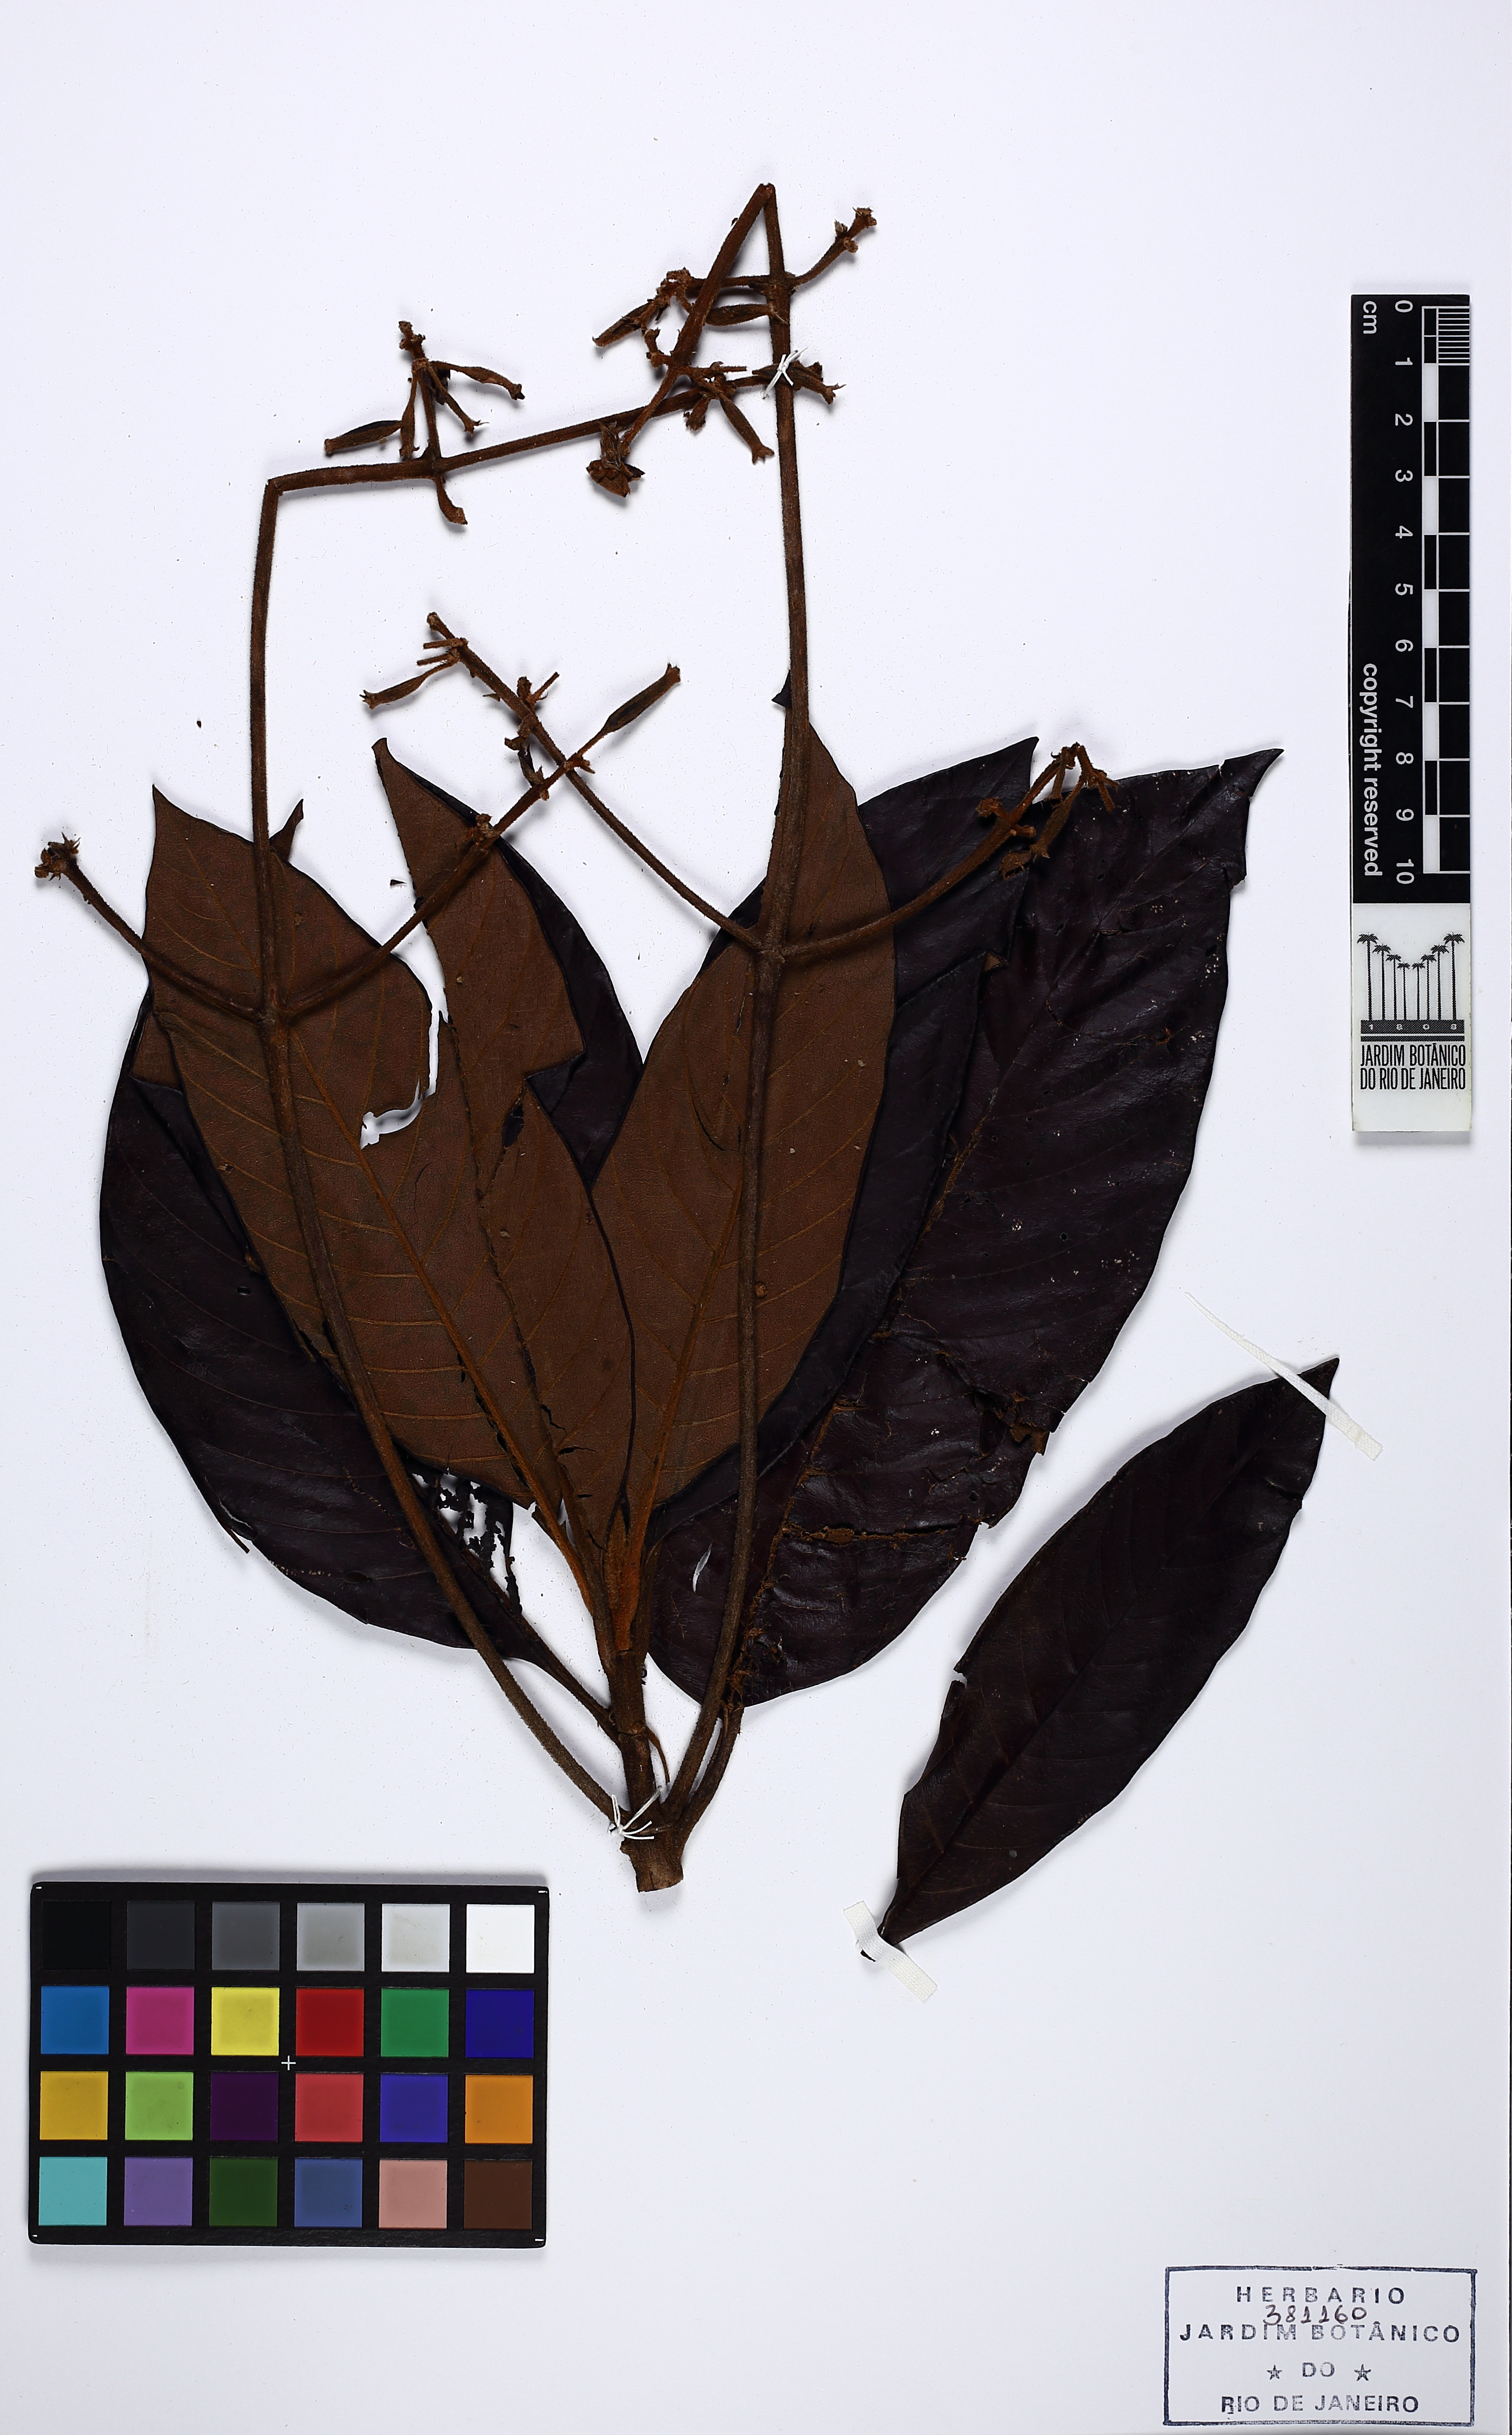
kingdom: Plantae
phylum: Tracheophyta
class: Magnoliopsida
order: Gentianales
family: Rubiaceae
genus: Remijia
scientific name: Remijia firmula
